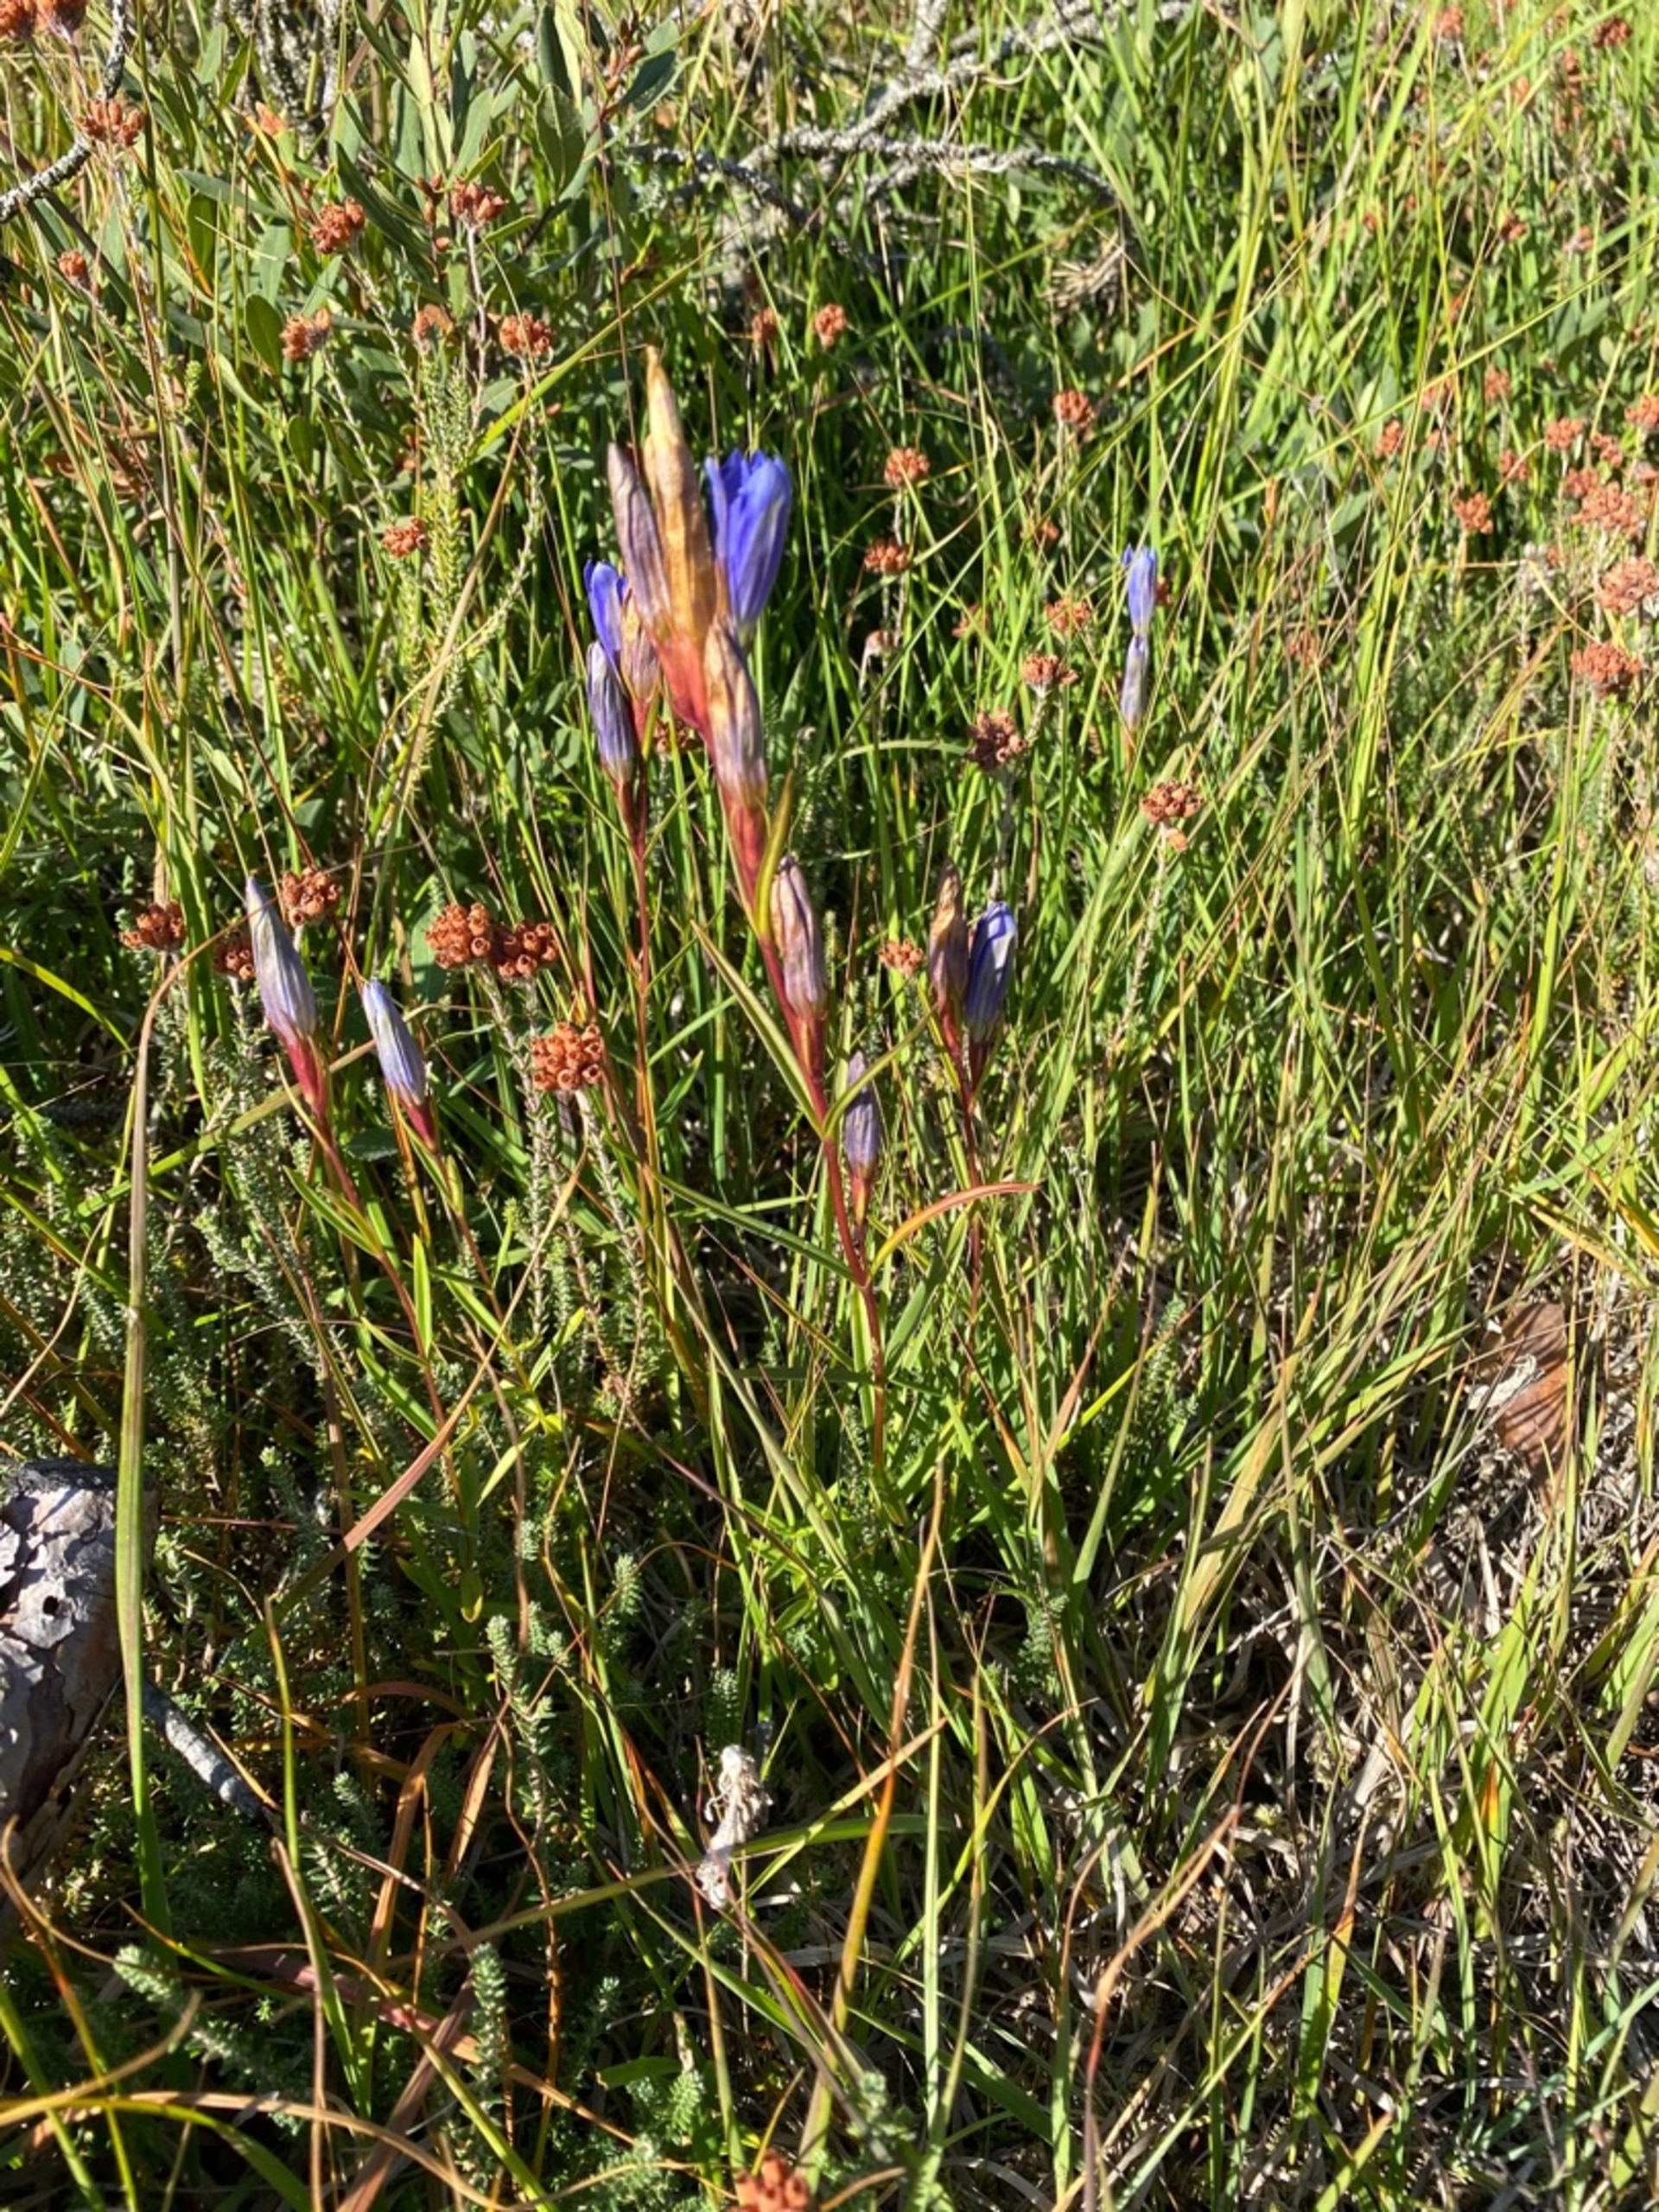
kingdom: Plantae
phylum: Tracheophyta
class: Magnoliopsida
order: Gentianales
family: Gentianaceae
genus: Gentiana
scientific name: Gentiana pneumonanthe
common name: Klokke-ensian
